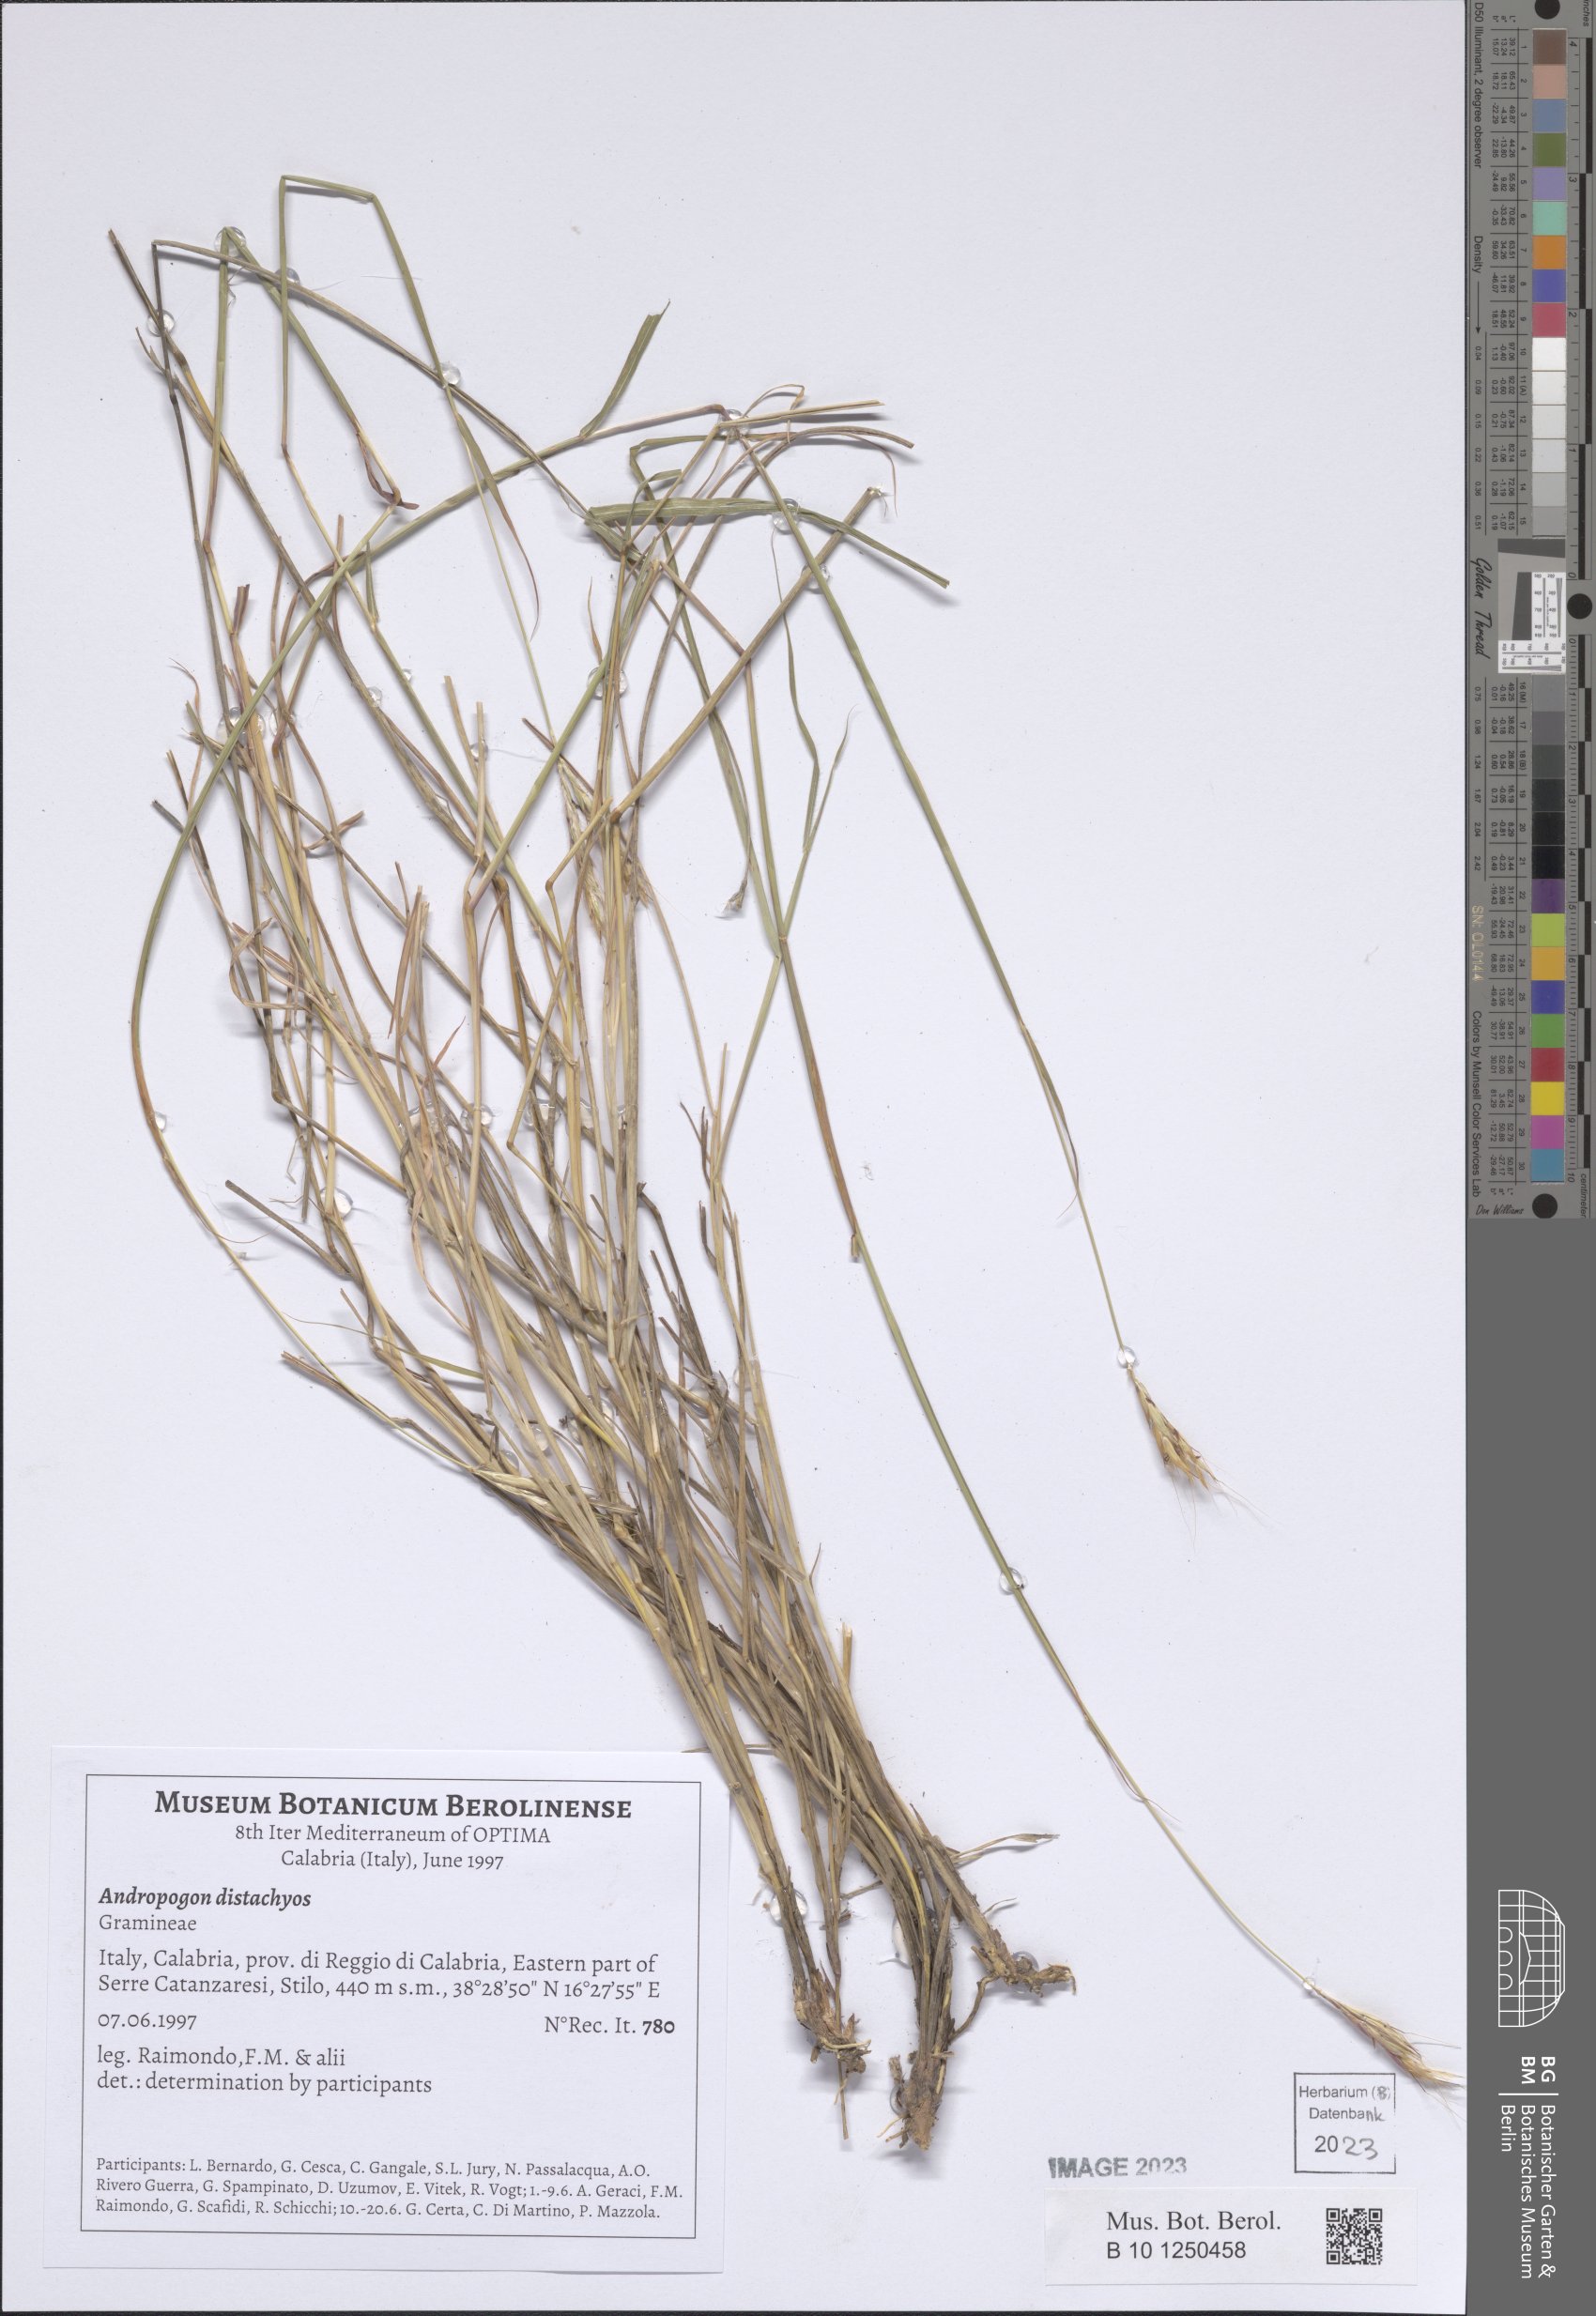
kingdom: Plantae
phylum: Tracheophyta
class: Liliopsida
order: Poales
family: Poaceae
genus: Andropogon
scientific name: Andropogon distachyos
